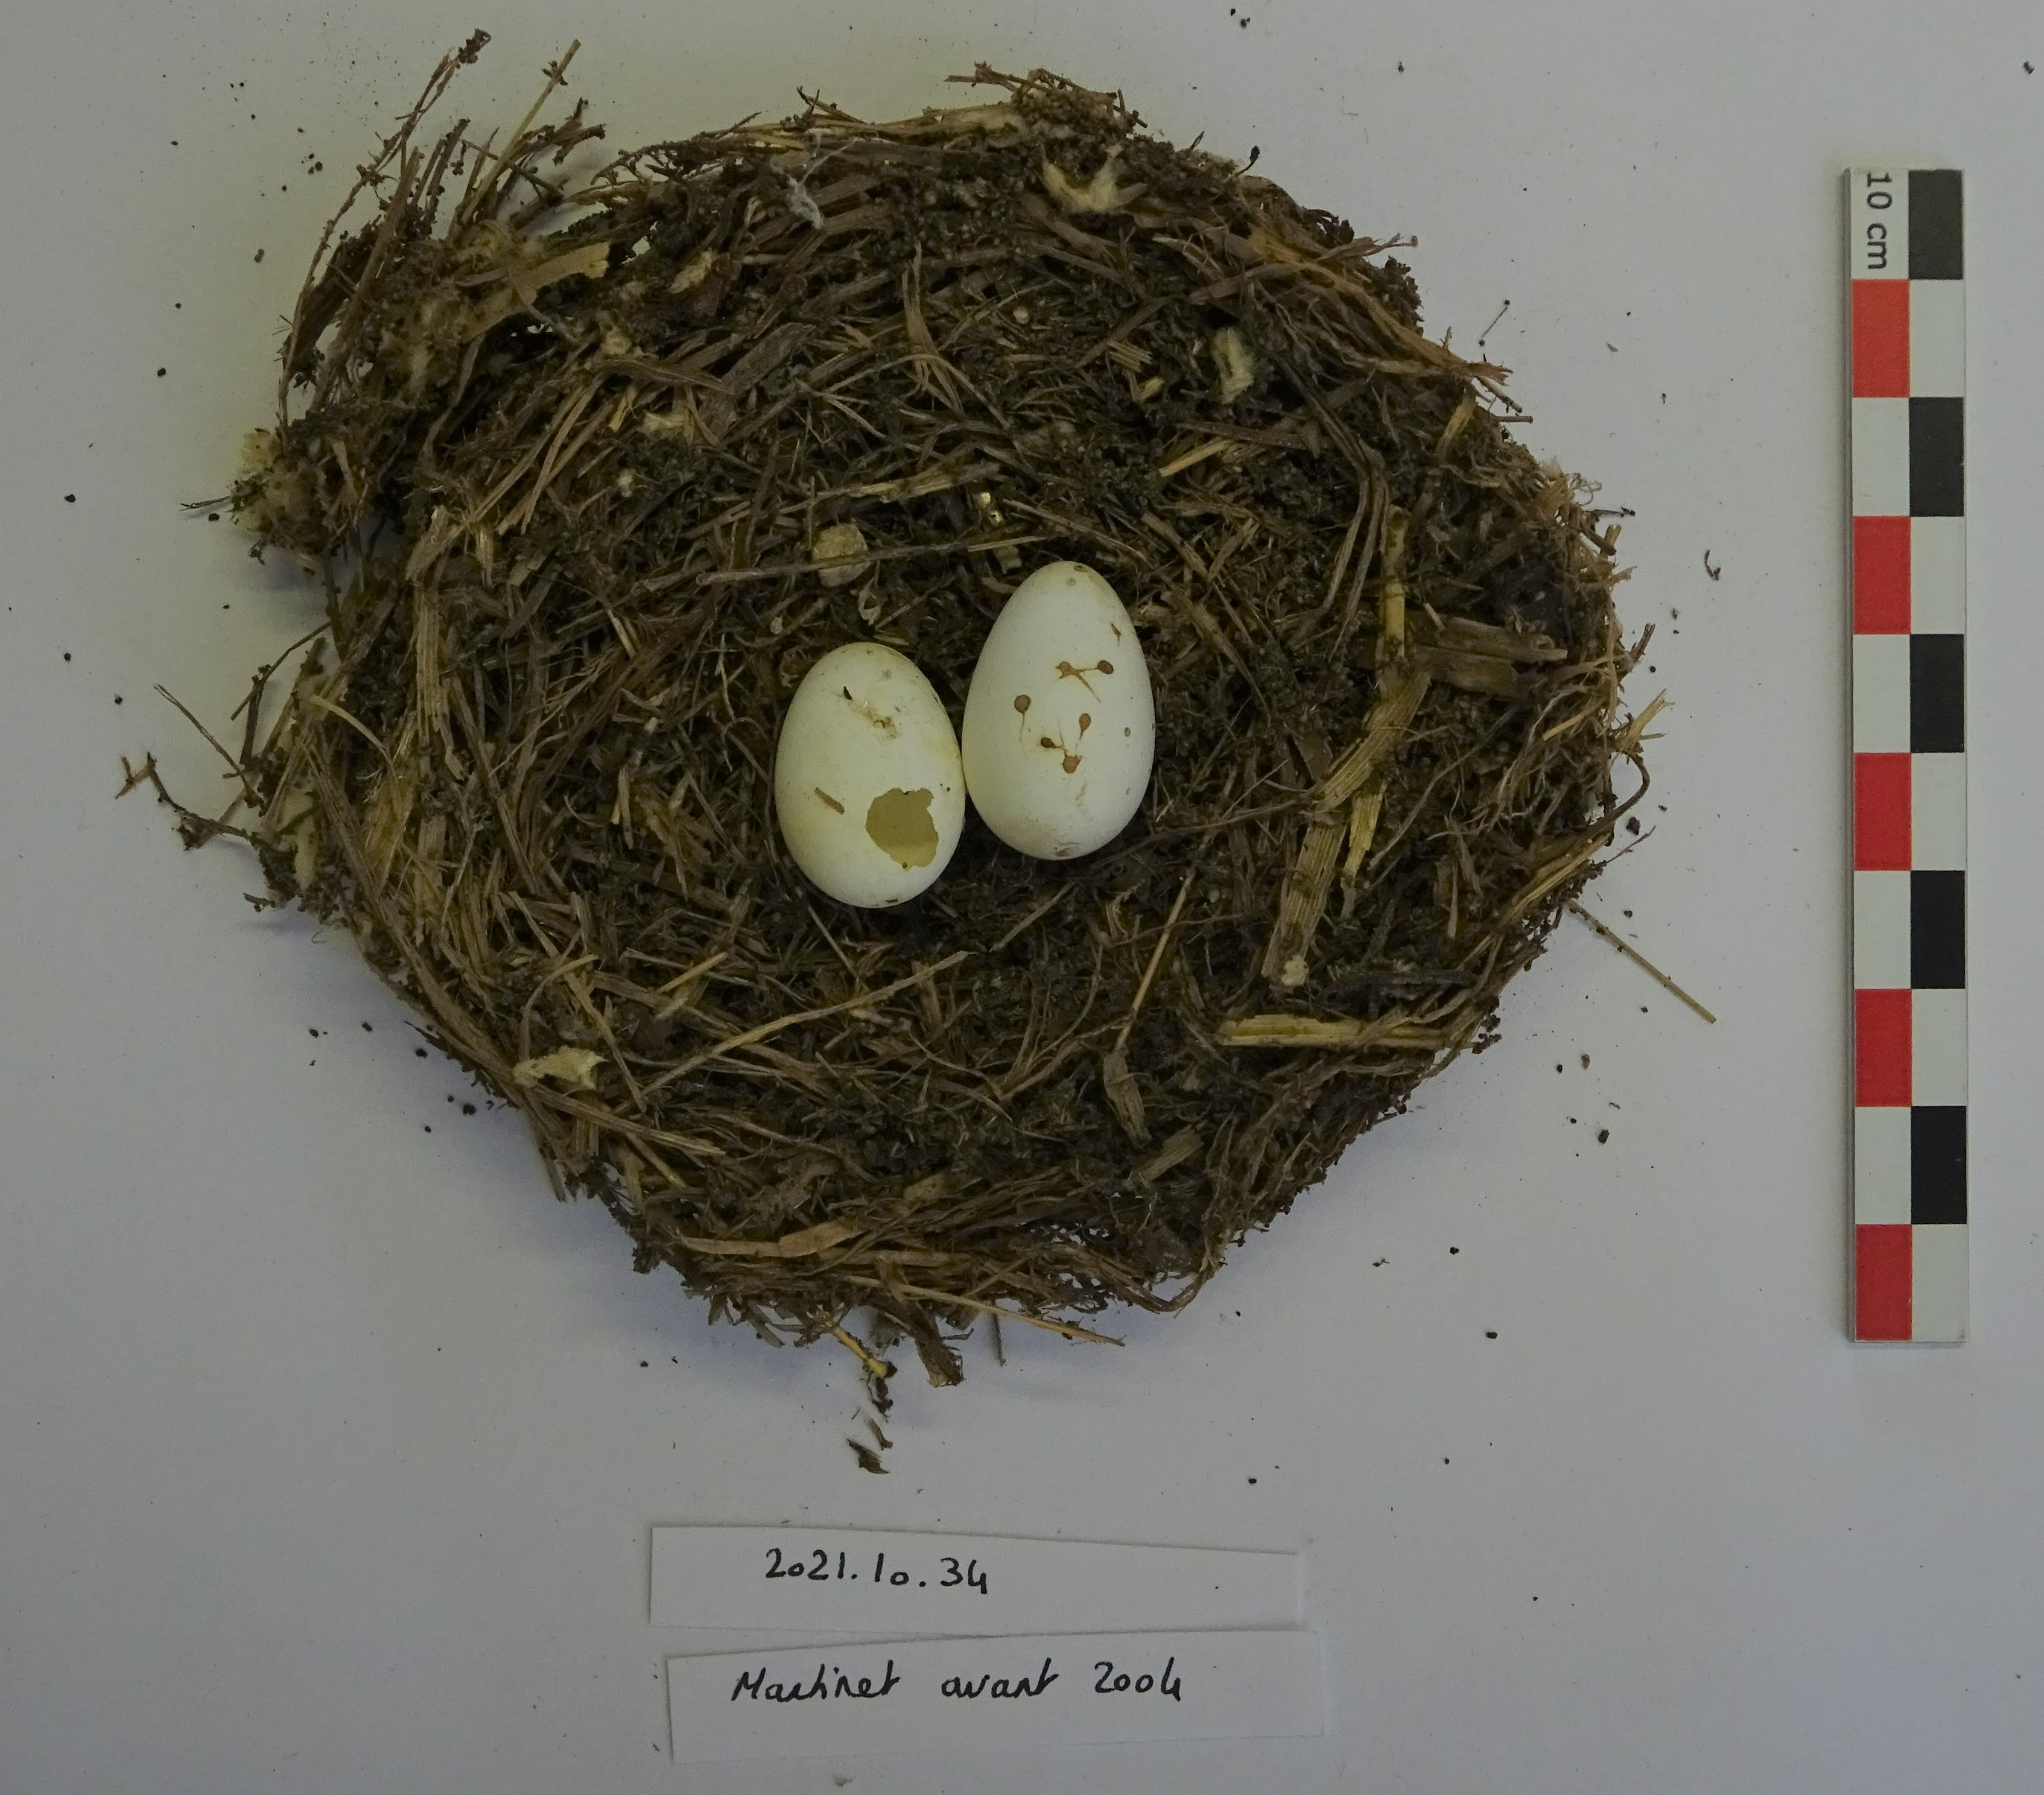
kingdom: Animalia
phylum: Chordata
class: Aves
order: Apodiformes
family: Apodidae
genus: Apus
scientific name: Apus apus
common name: Common swift
